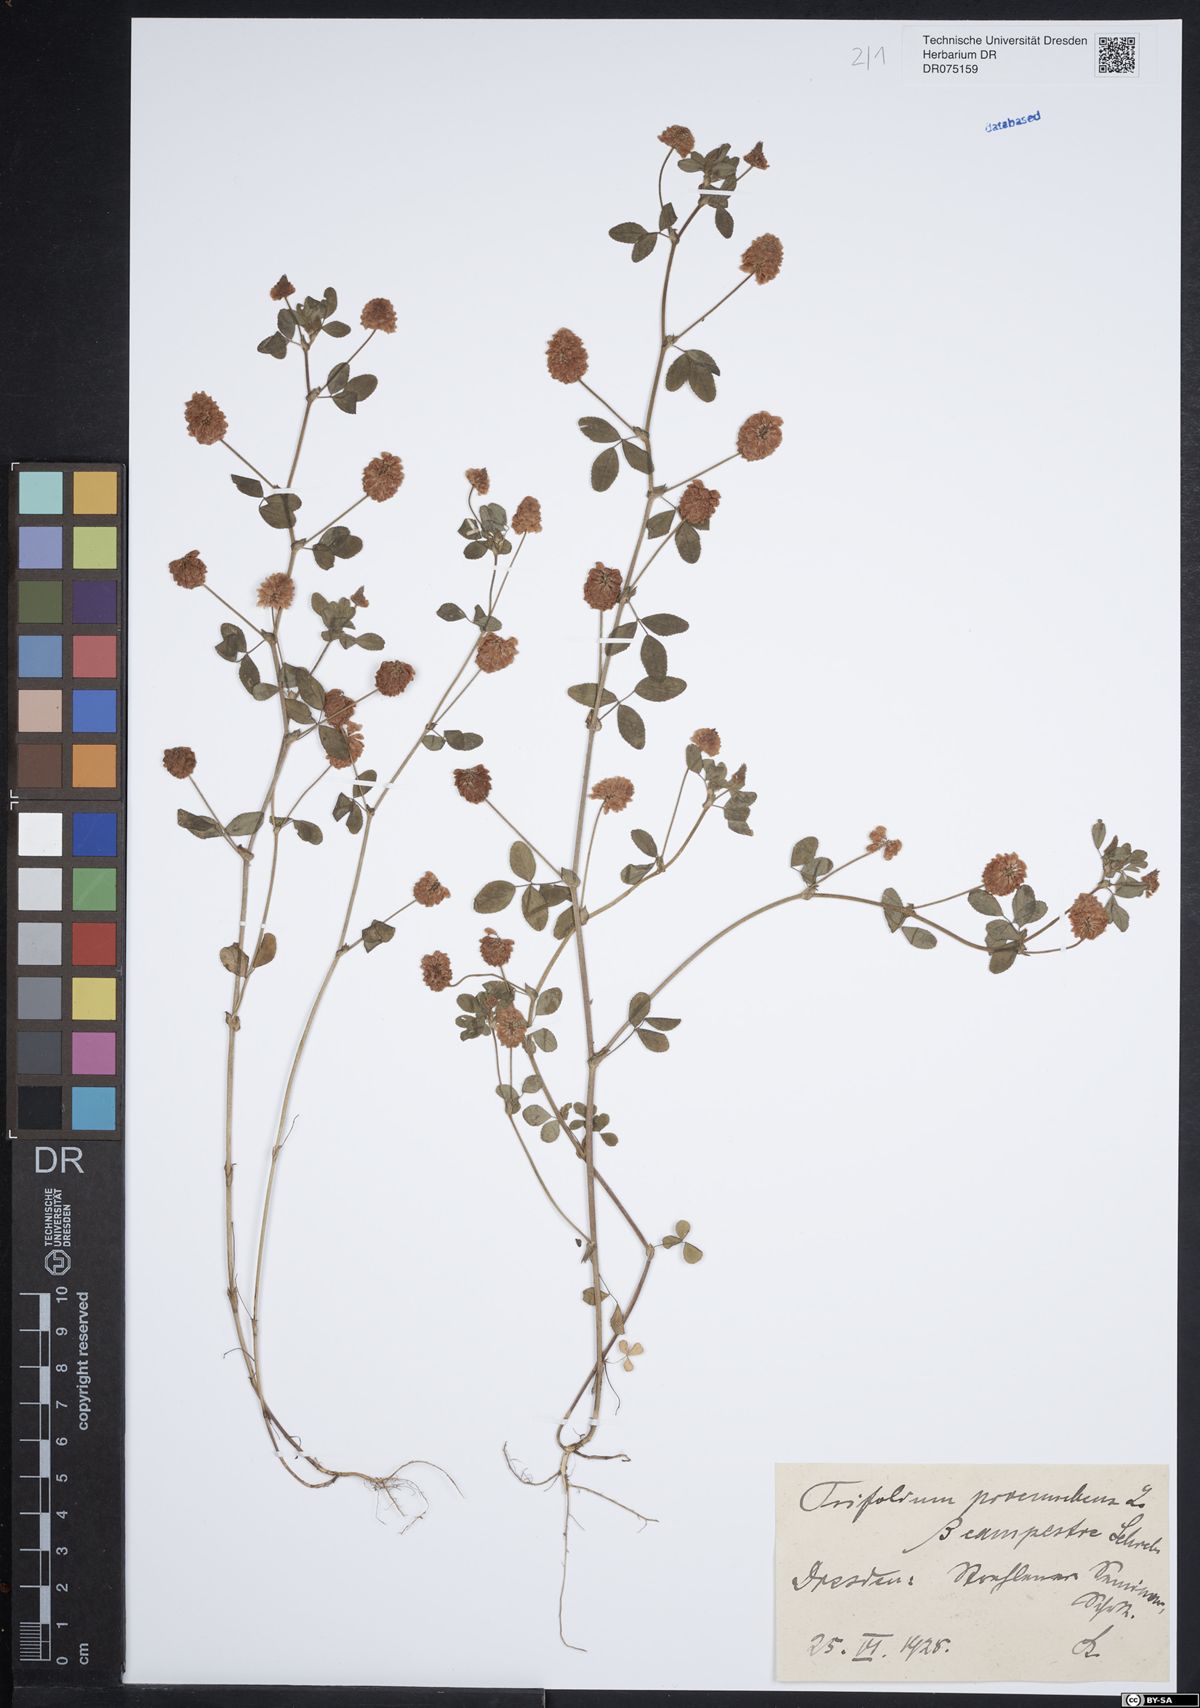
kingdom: Plantae
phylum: Tracheophyta
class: Magnoliopsida
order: Fabales
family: Fabaceae
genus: Trifolium
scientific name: Trifolium campestre
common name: Field clover
